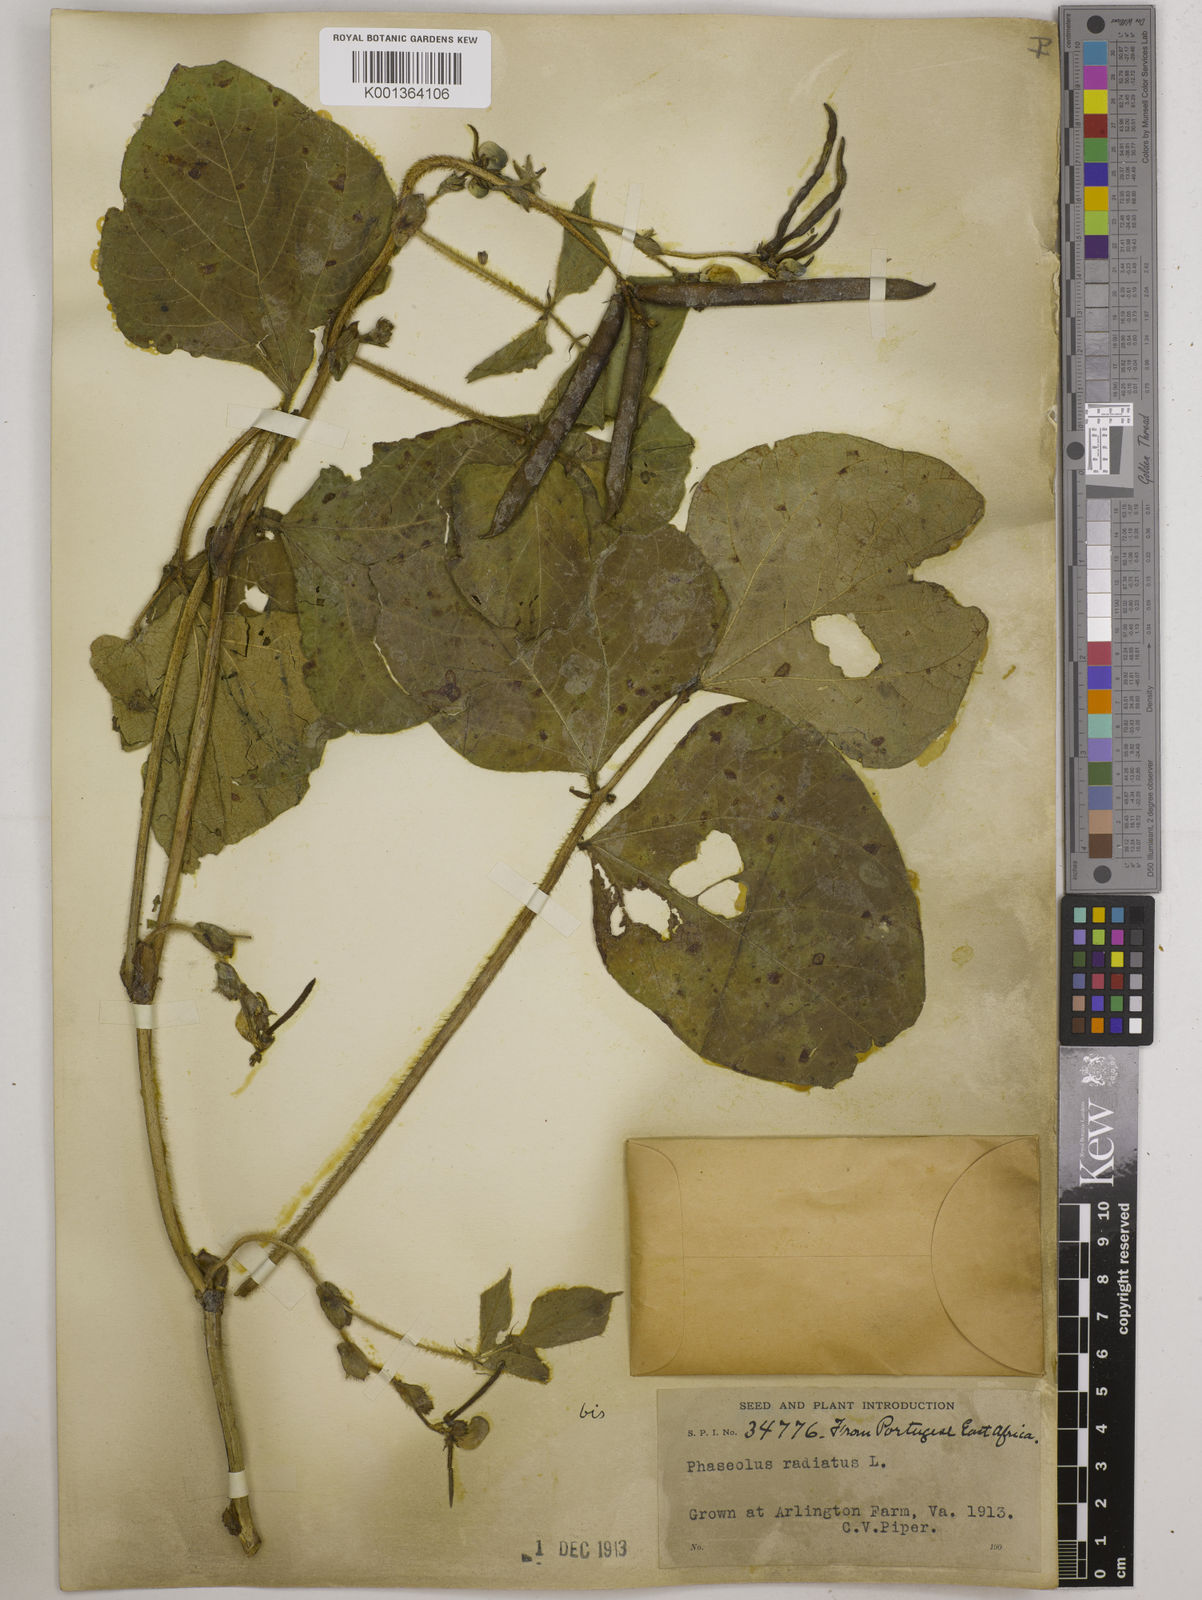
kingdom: Plantae
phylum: Tracheophyta
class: Magnoliopsida
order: Fabales
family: Fabaceae
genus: Vigna
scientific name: Vigna radiata
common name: Mung-bean
